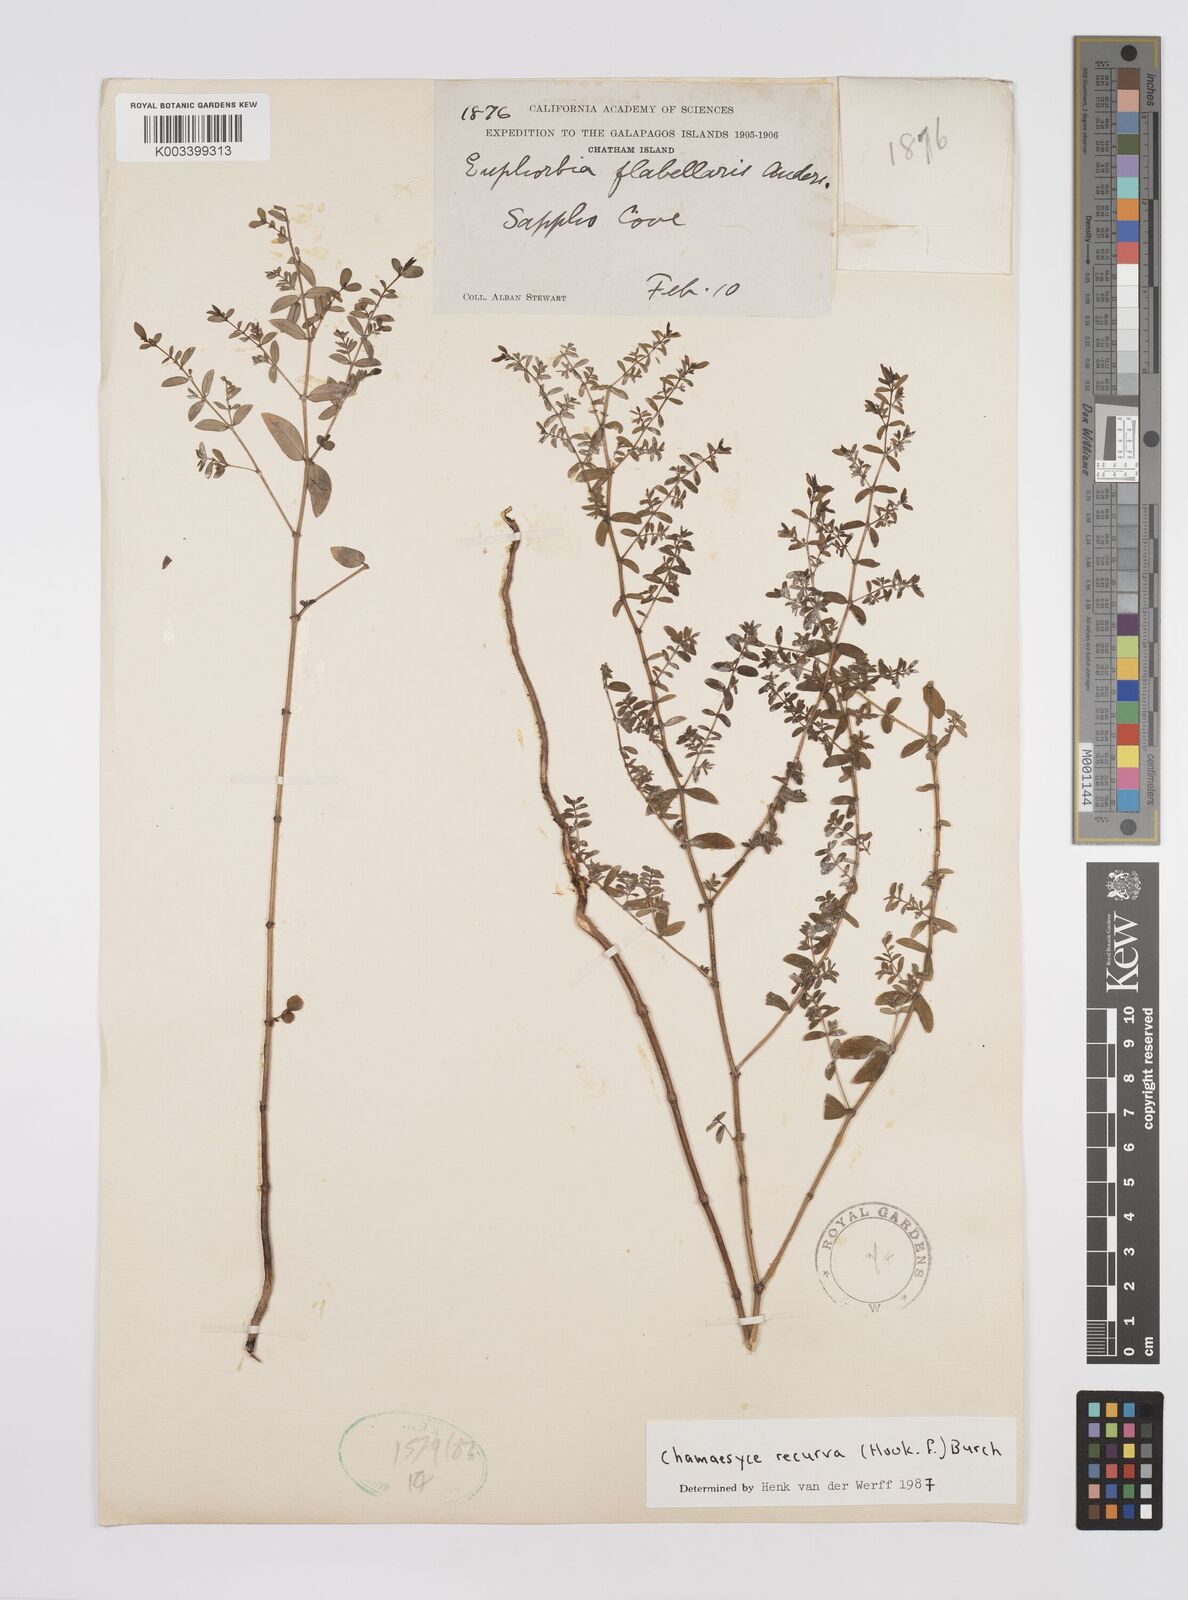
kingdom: Plantae
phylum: Tracheophyta
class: Magnoliopsida
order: Malpighiales
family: Euphorbiaceae
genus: Euphorbia
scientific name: Euphorbia recurva
